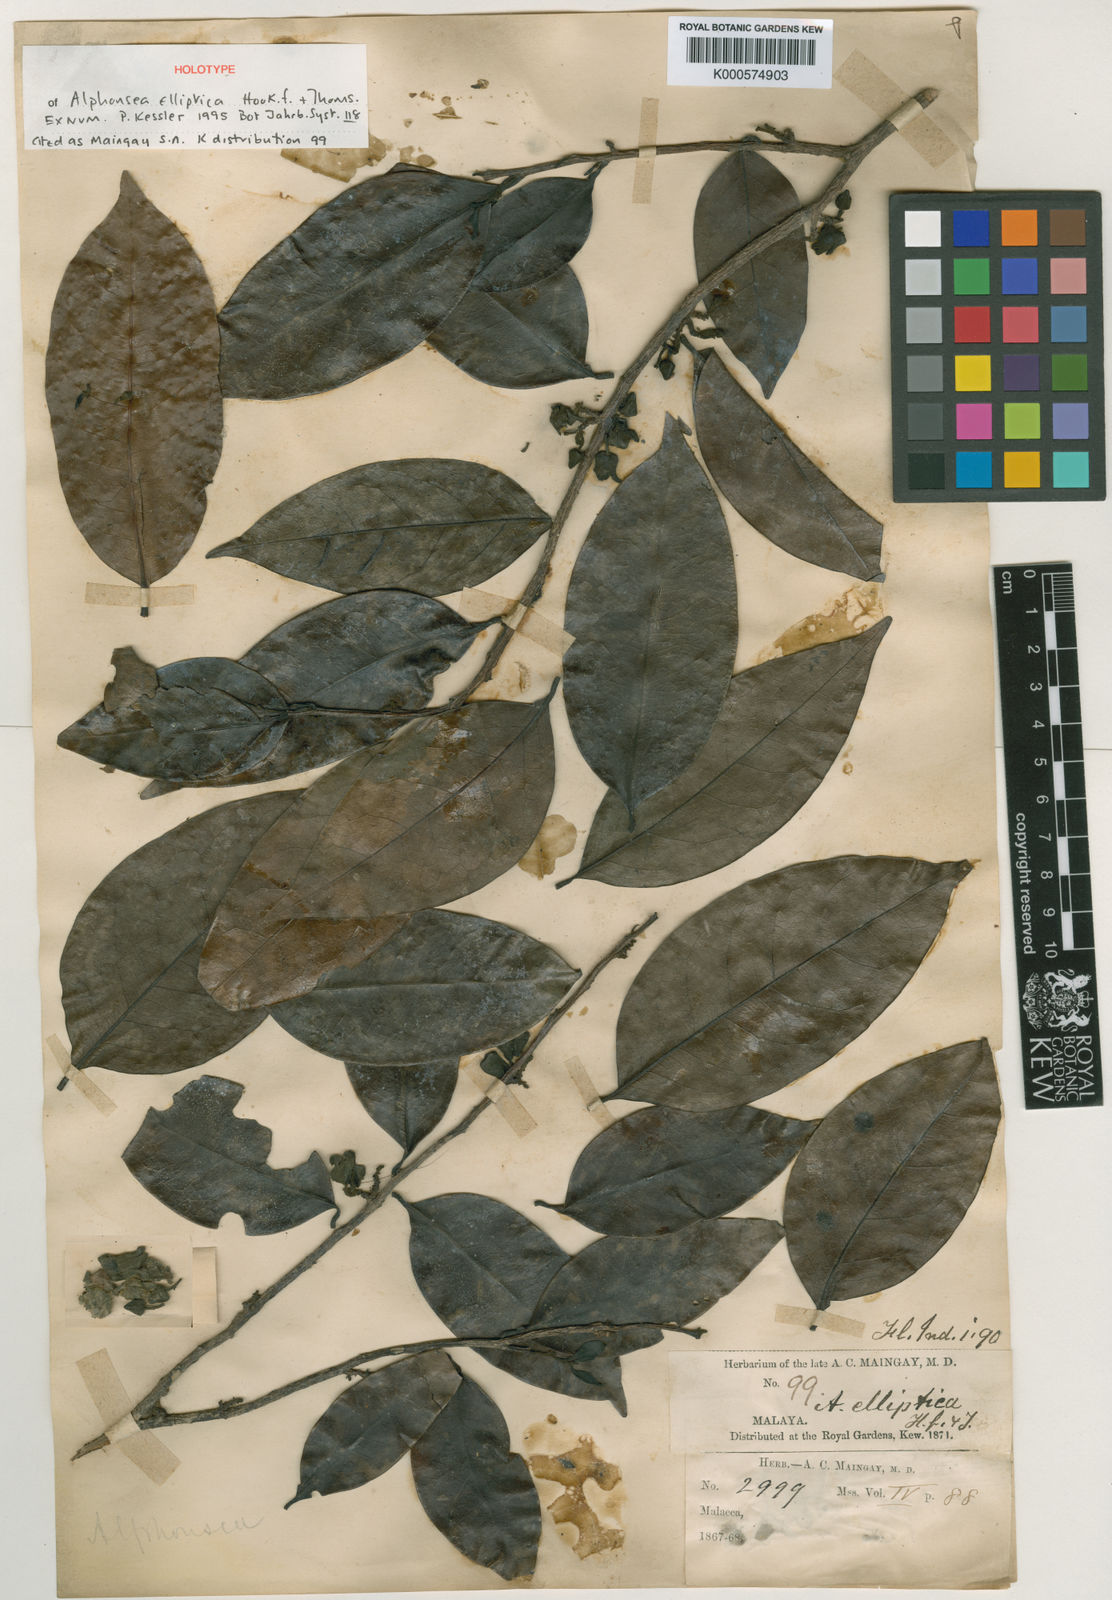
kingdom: Plantae
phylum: Tracheophyta
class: Magnoliopsida
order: Magnoliales
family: Annonaceae
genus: Alphonsea
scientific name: Alphonsea elliptica
